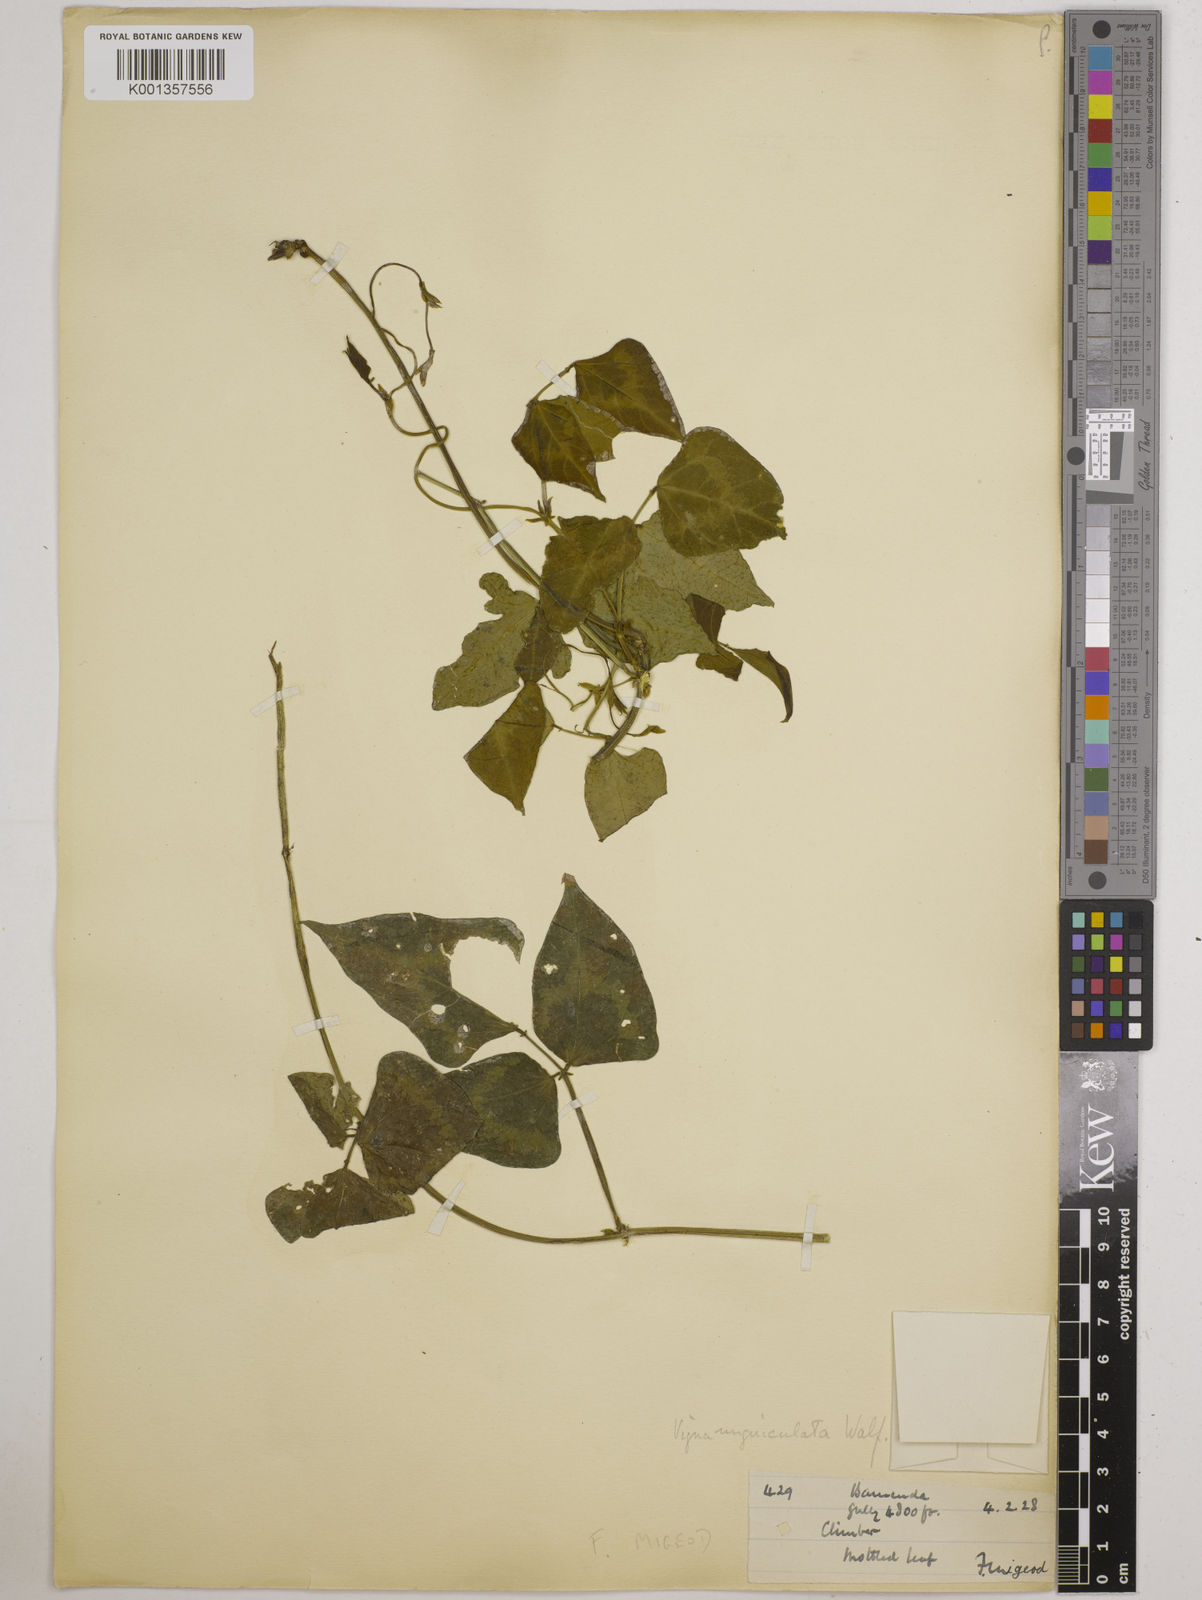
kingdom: Plantae
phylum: Tracheophyta
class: Magnoliopsida
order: Fabales
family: Fabaceae
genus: Vigna
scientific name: Vigna
